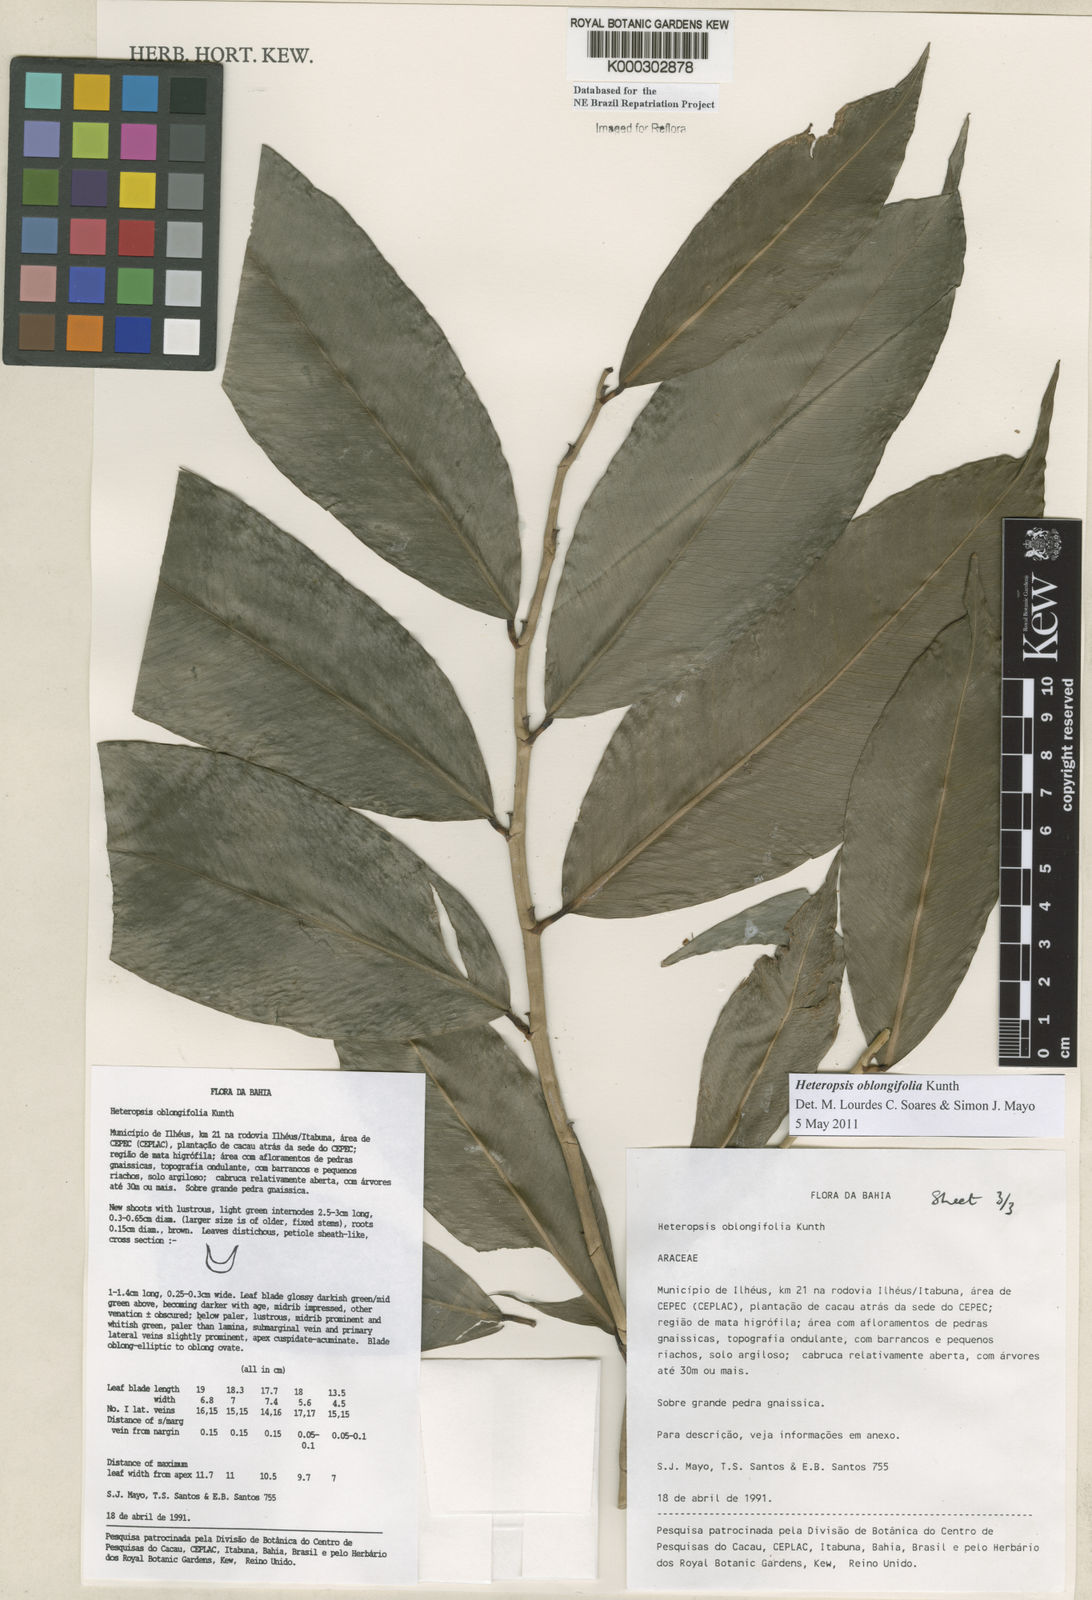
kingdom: Plantae
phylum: Tracheophyta
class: Liliopsida
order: Alismatales
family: Araceae
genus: Heteropsis
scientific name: Heteropsis oblongifolia
